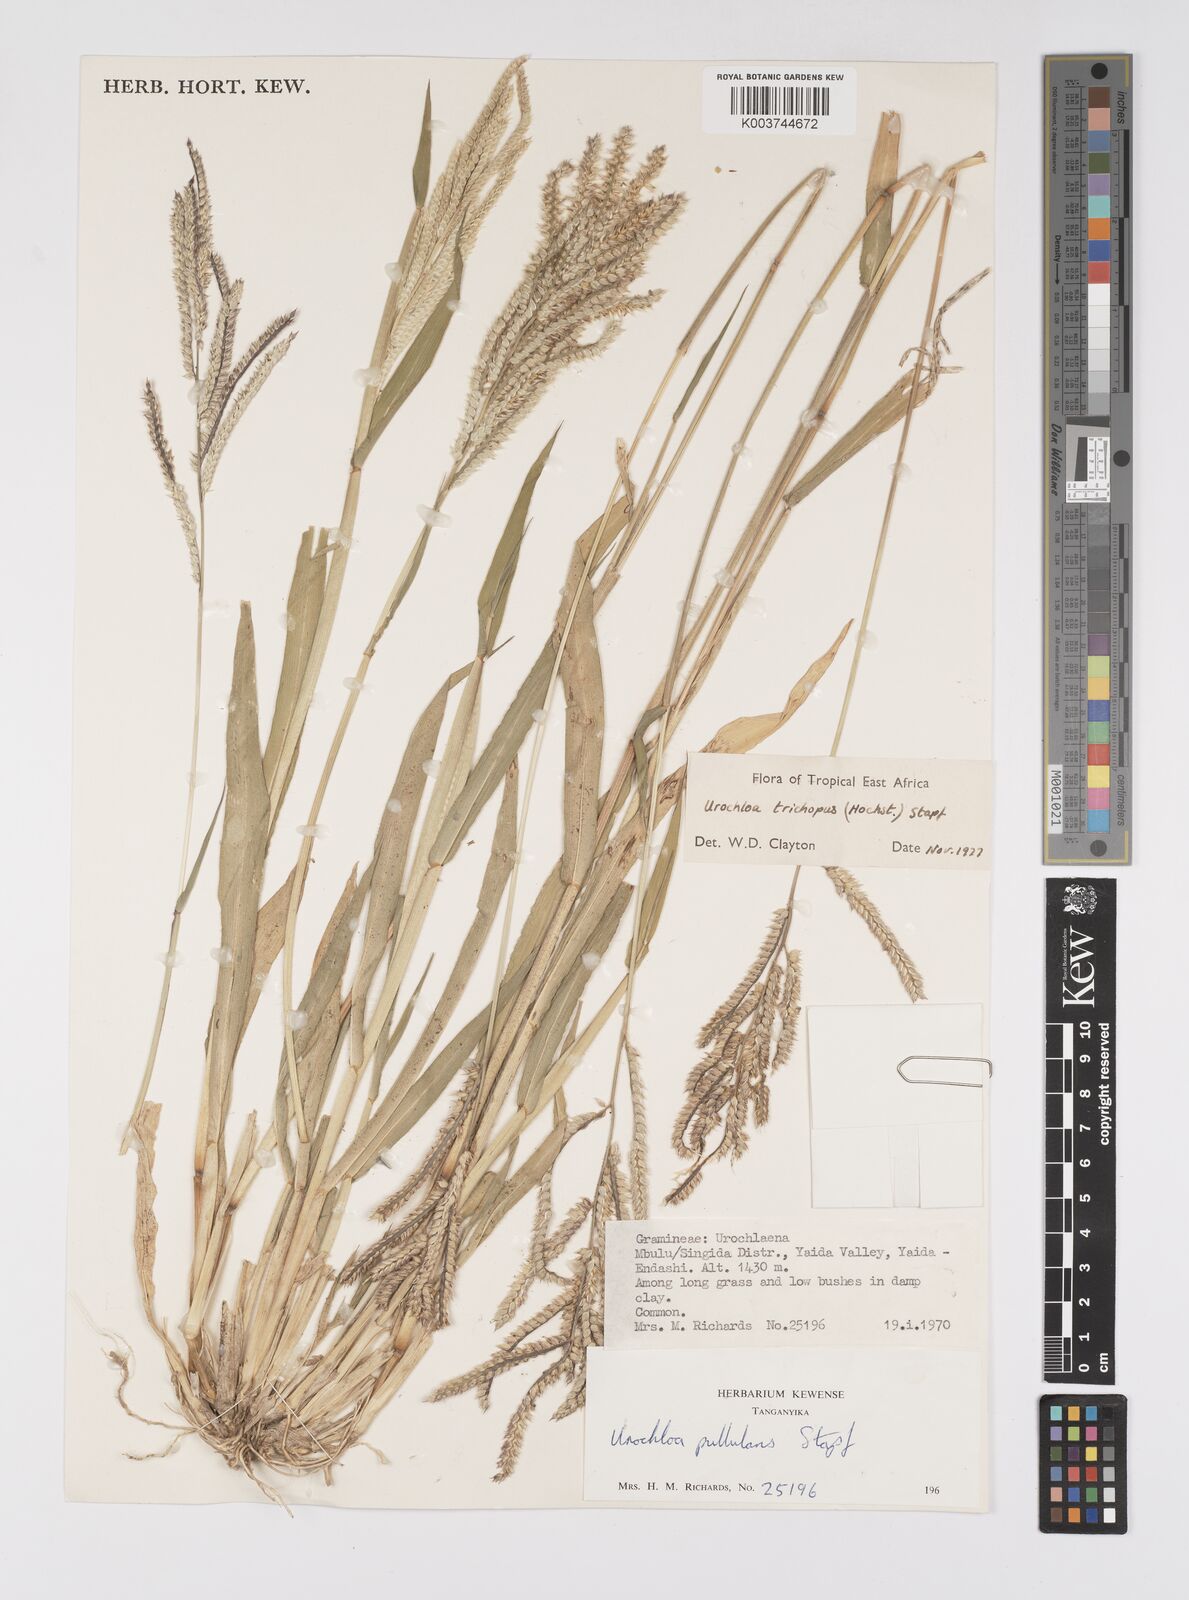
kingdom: Plantae
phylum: Tracheophyta
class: Liliopsida
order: Poales
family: Poaceae
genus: Urochloa
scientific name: Urochloa trichopus
